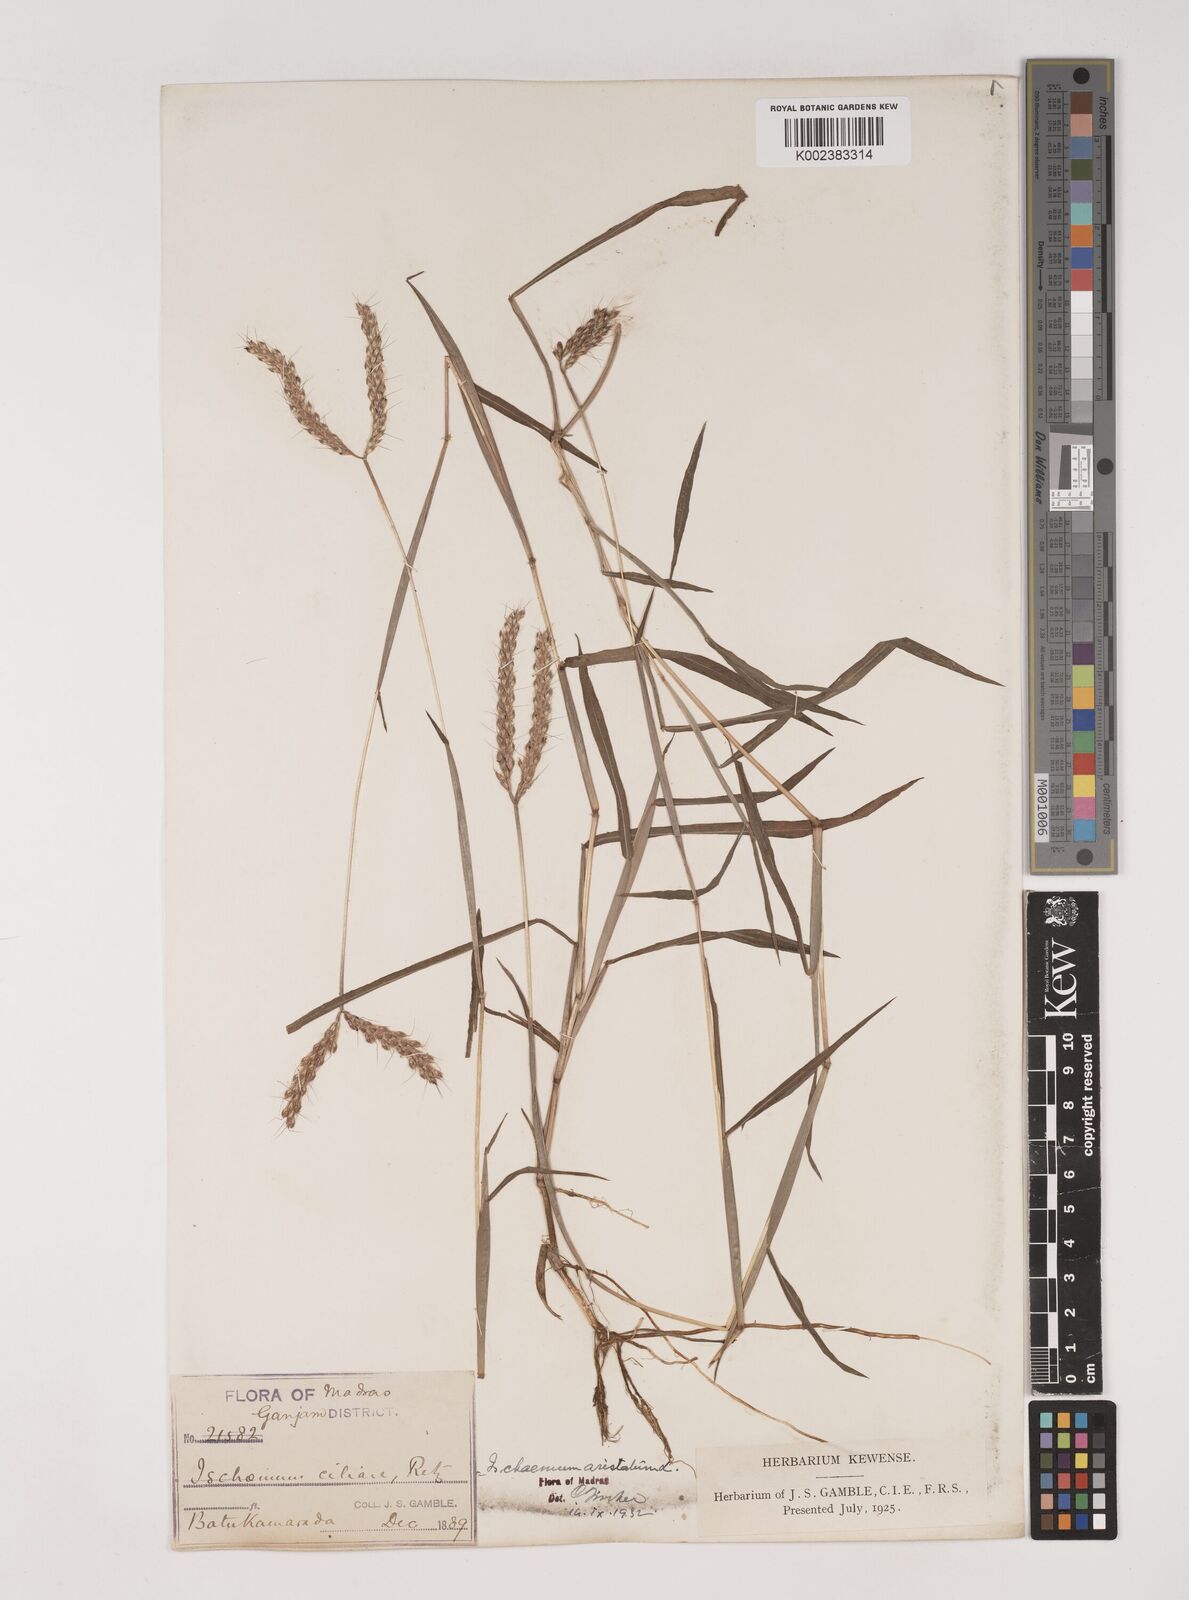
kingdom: Plantae
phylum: Tracheophyta
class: Liliopsida
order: Poales
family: Poaceae
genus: Polytrias
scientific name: Polytrias indica
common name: Indian murainagrass
